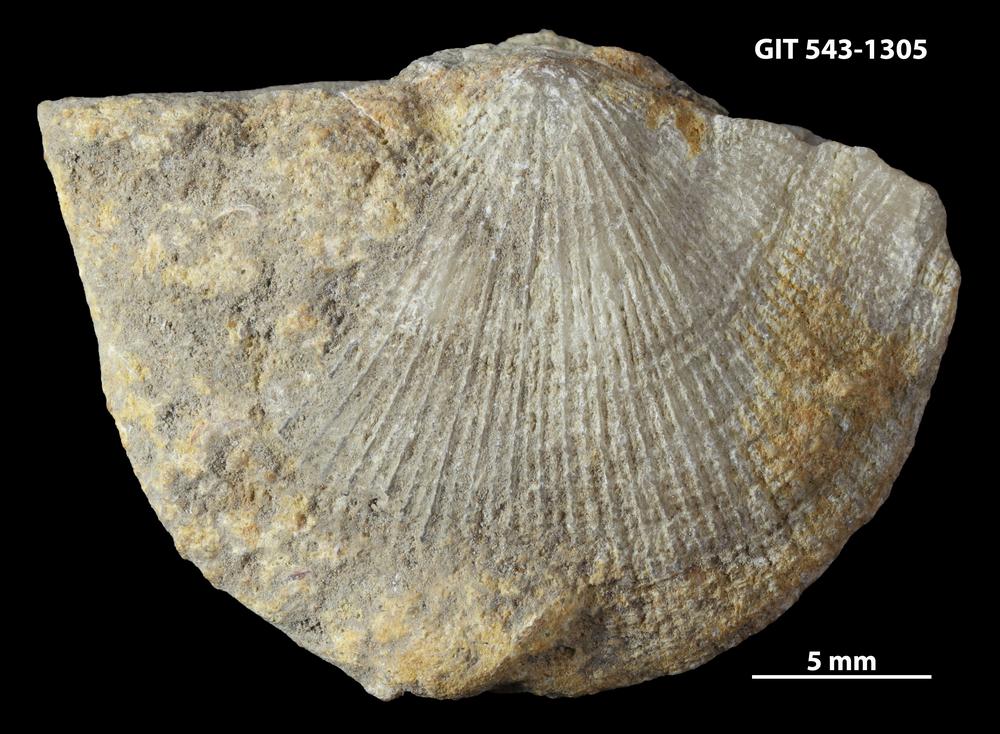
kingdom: Animalia
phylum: Brachiopoda
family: Gonambonitidae
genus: Estlandia
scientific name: Estlandia Orthisina marginata
